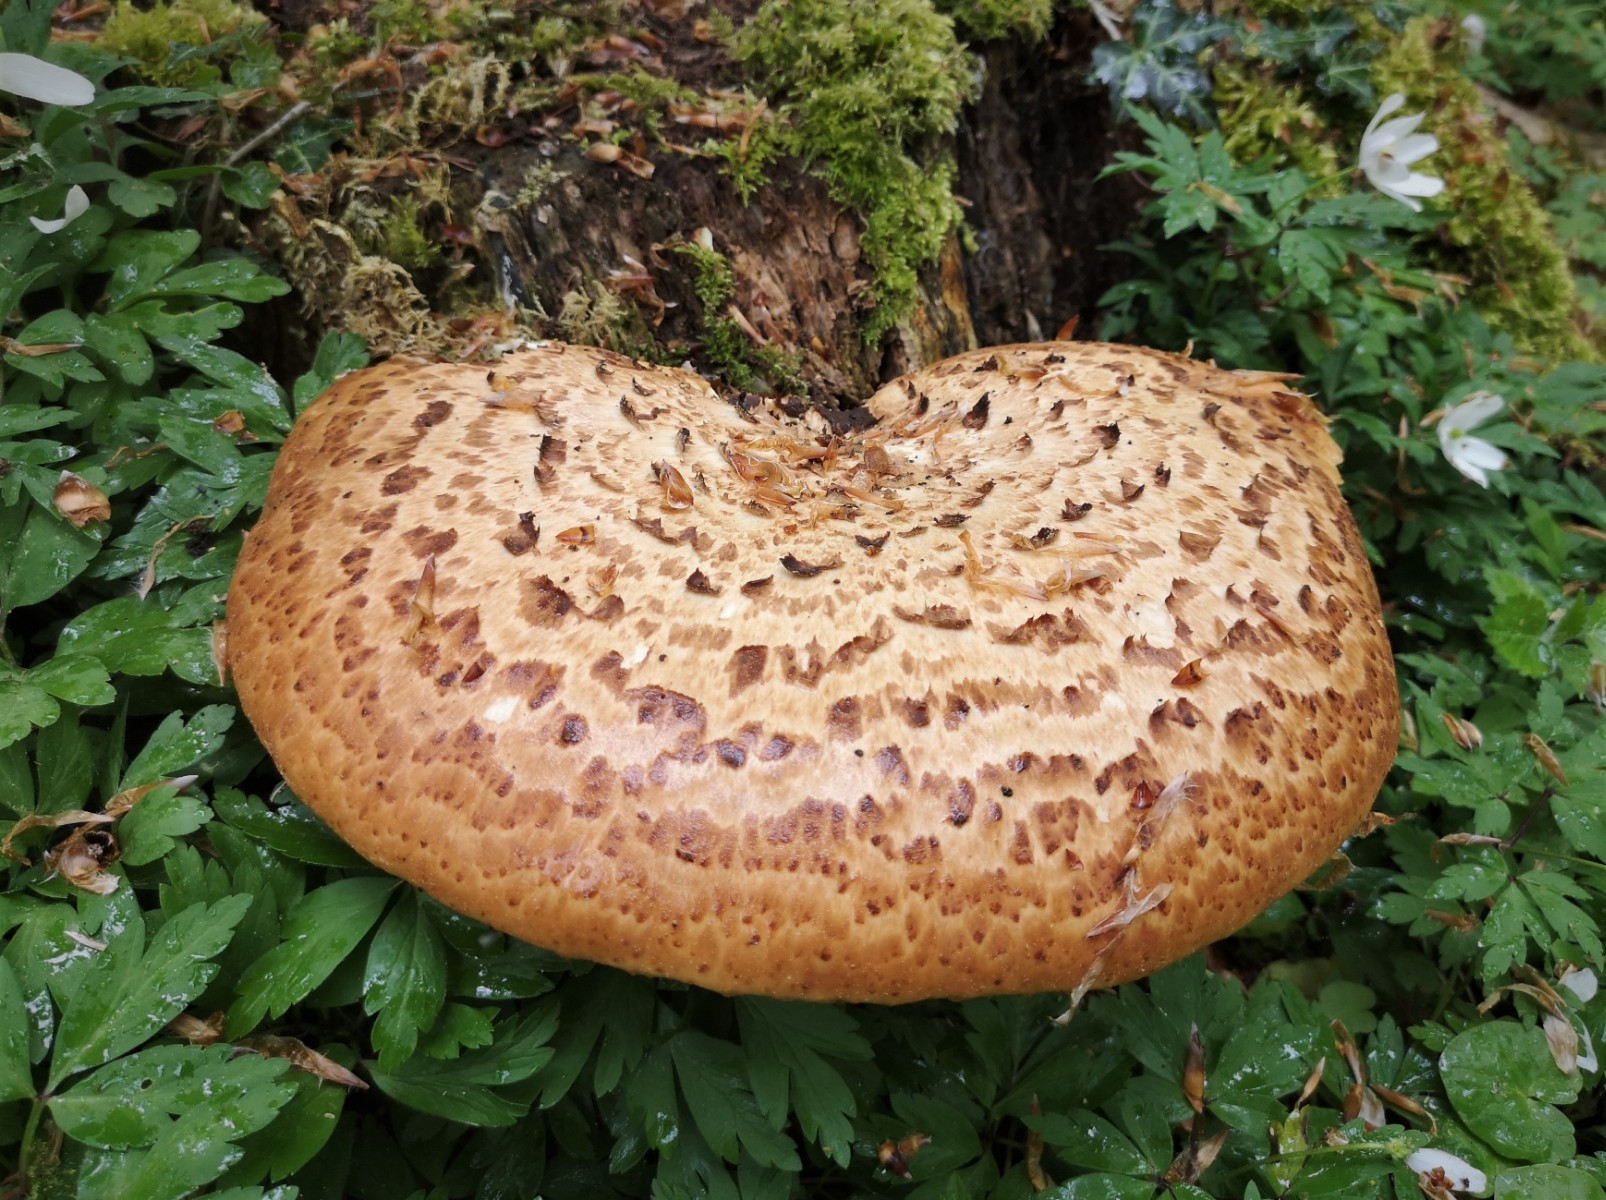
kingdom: Fungi
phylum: Basidiomycota
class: Agaricomycetes
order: Polyporales
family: Polyporaceae
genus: Cerioporus
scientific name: Cerioporus squamosus
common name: skællet stilkporesvamp
